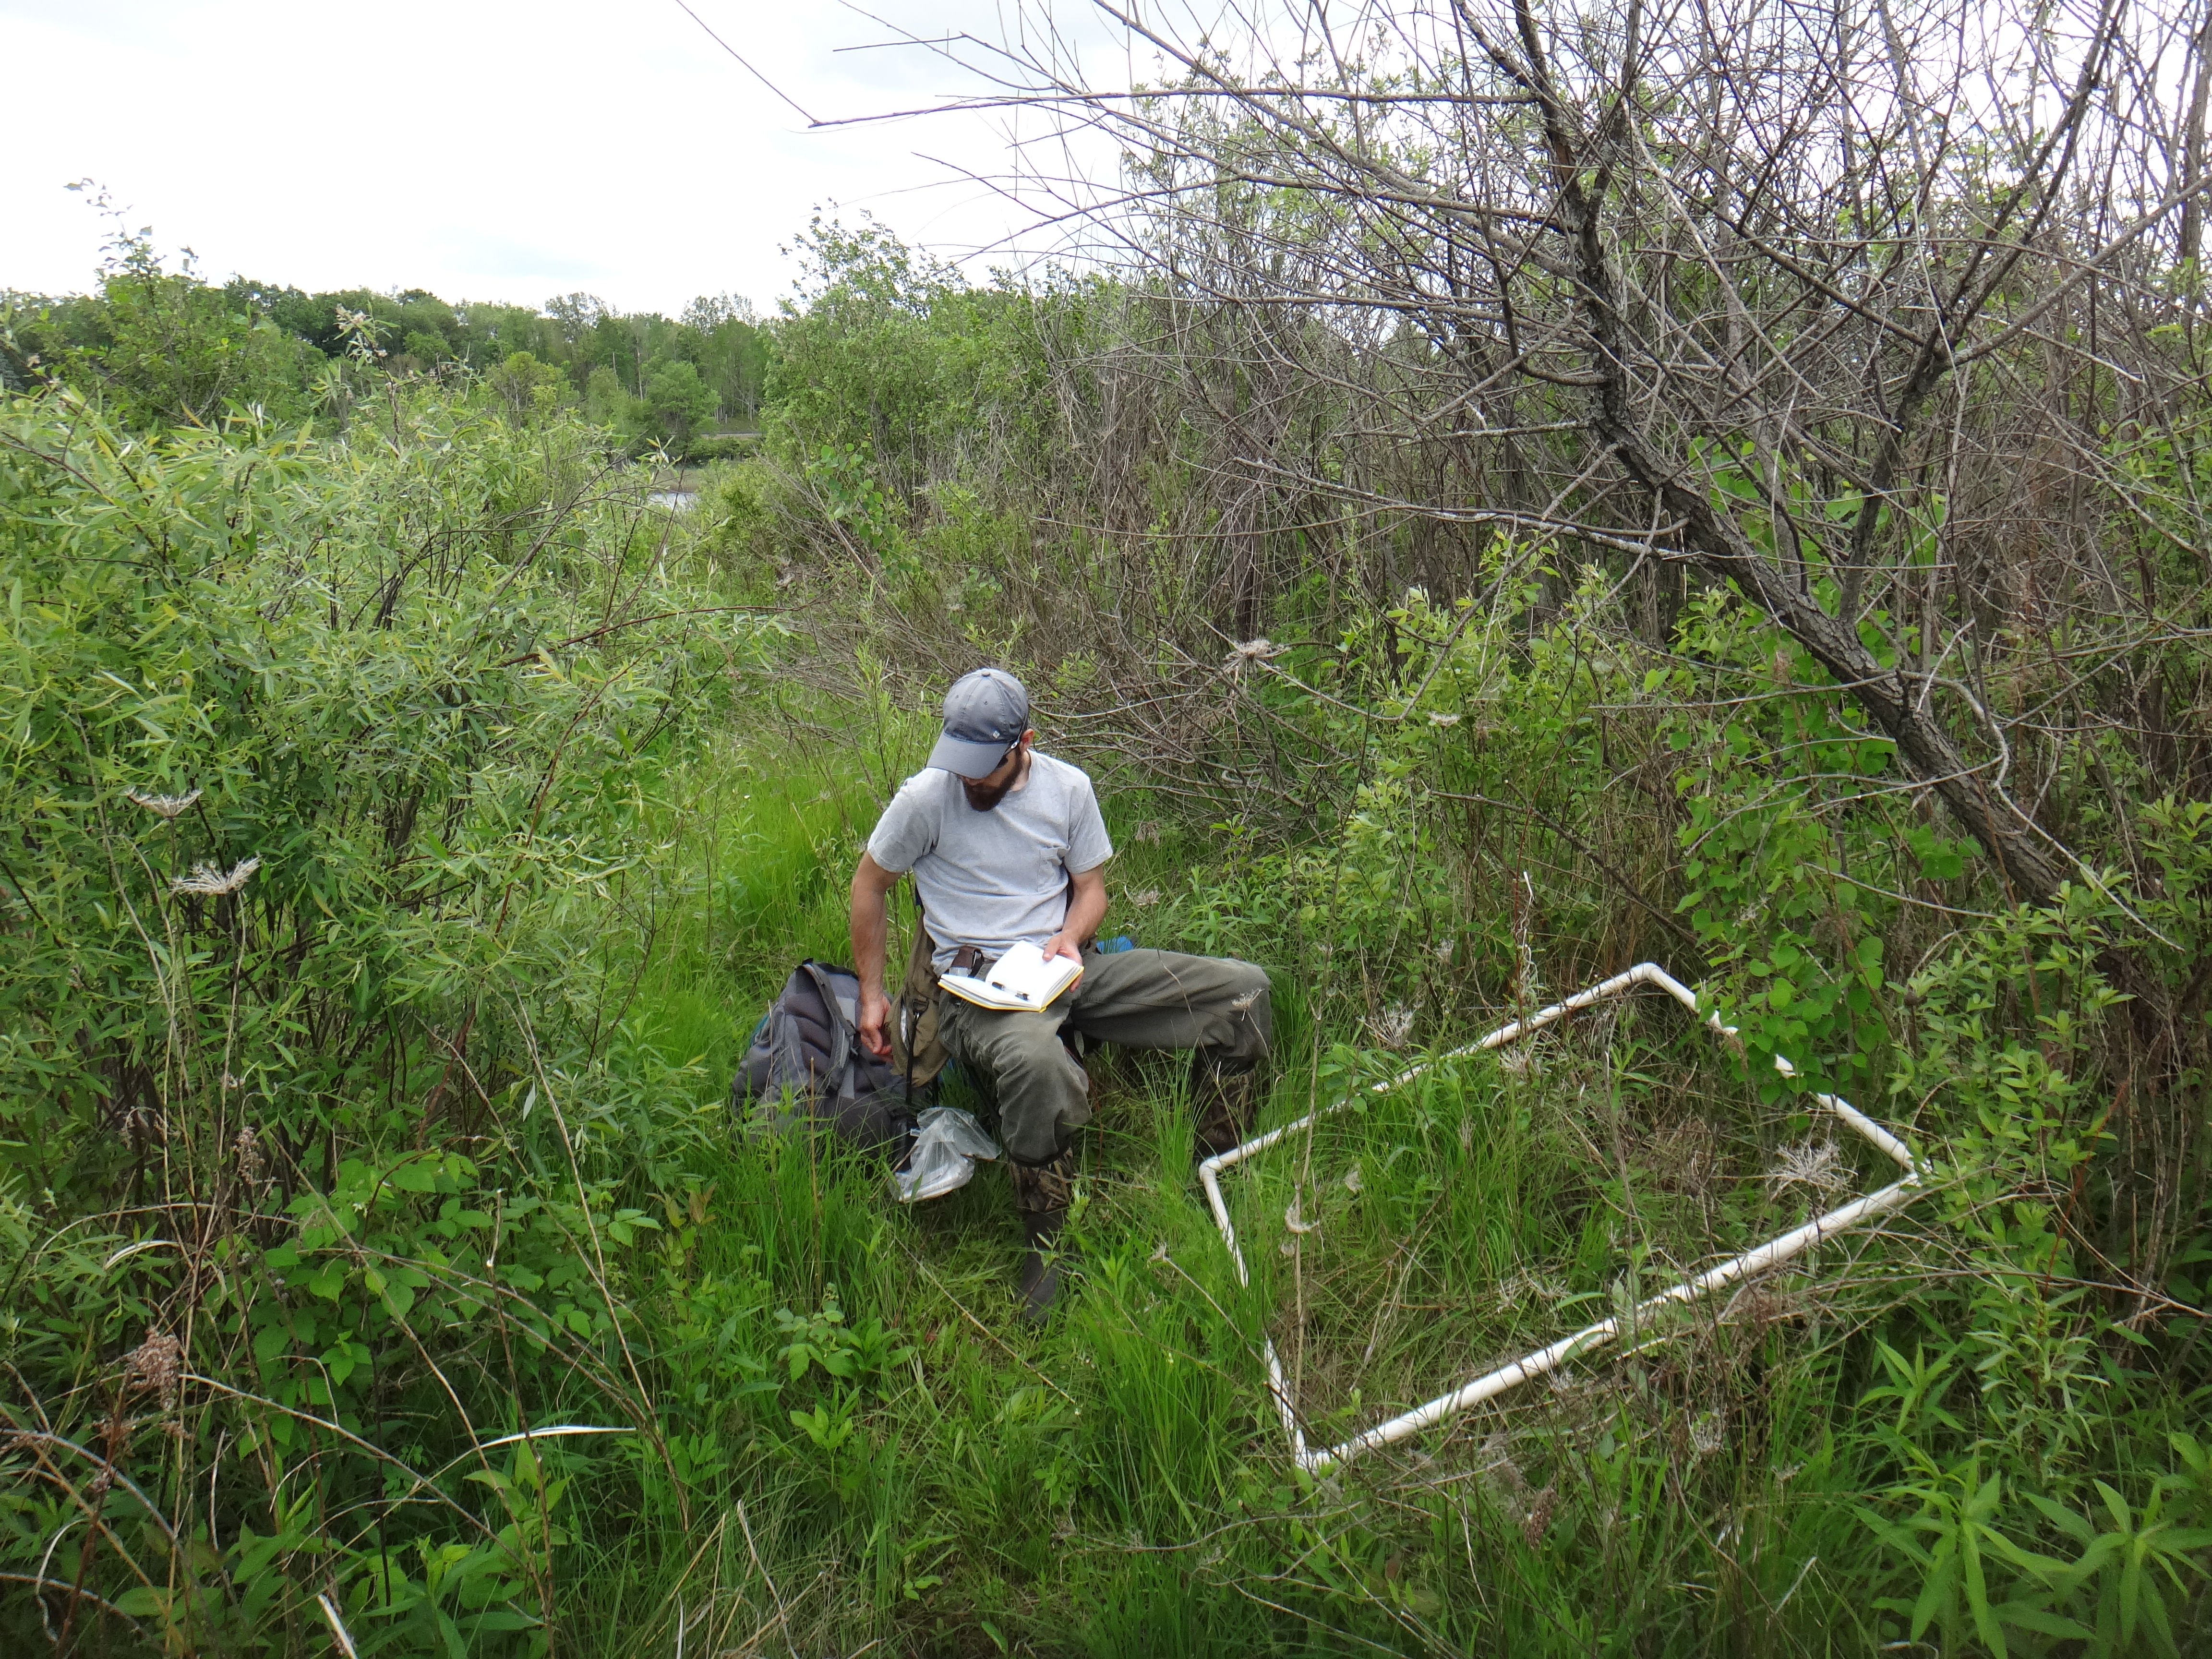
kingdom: Plantae
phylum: Tracheophyta
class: Magnoliopsida
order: Asterales
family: Asteraceae
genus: Cirsium
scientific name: Cirsium muticum
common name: Dunce-nettle
